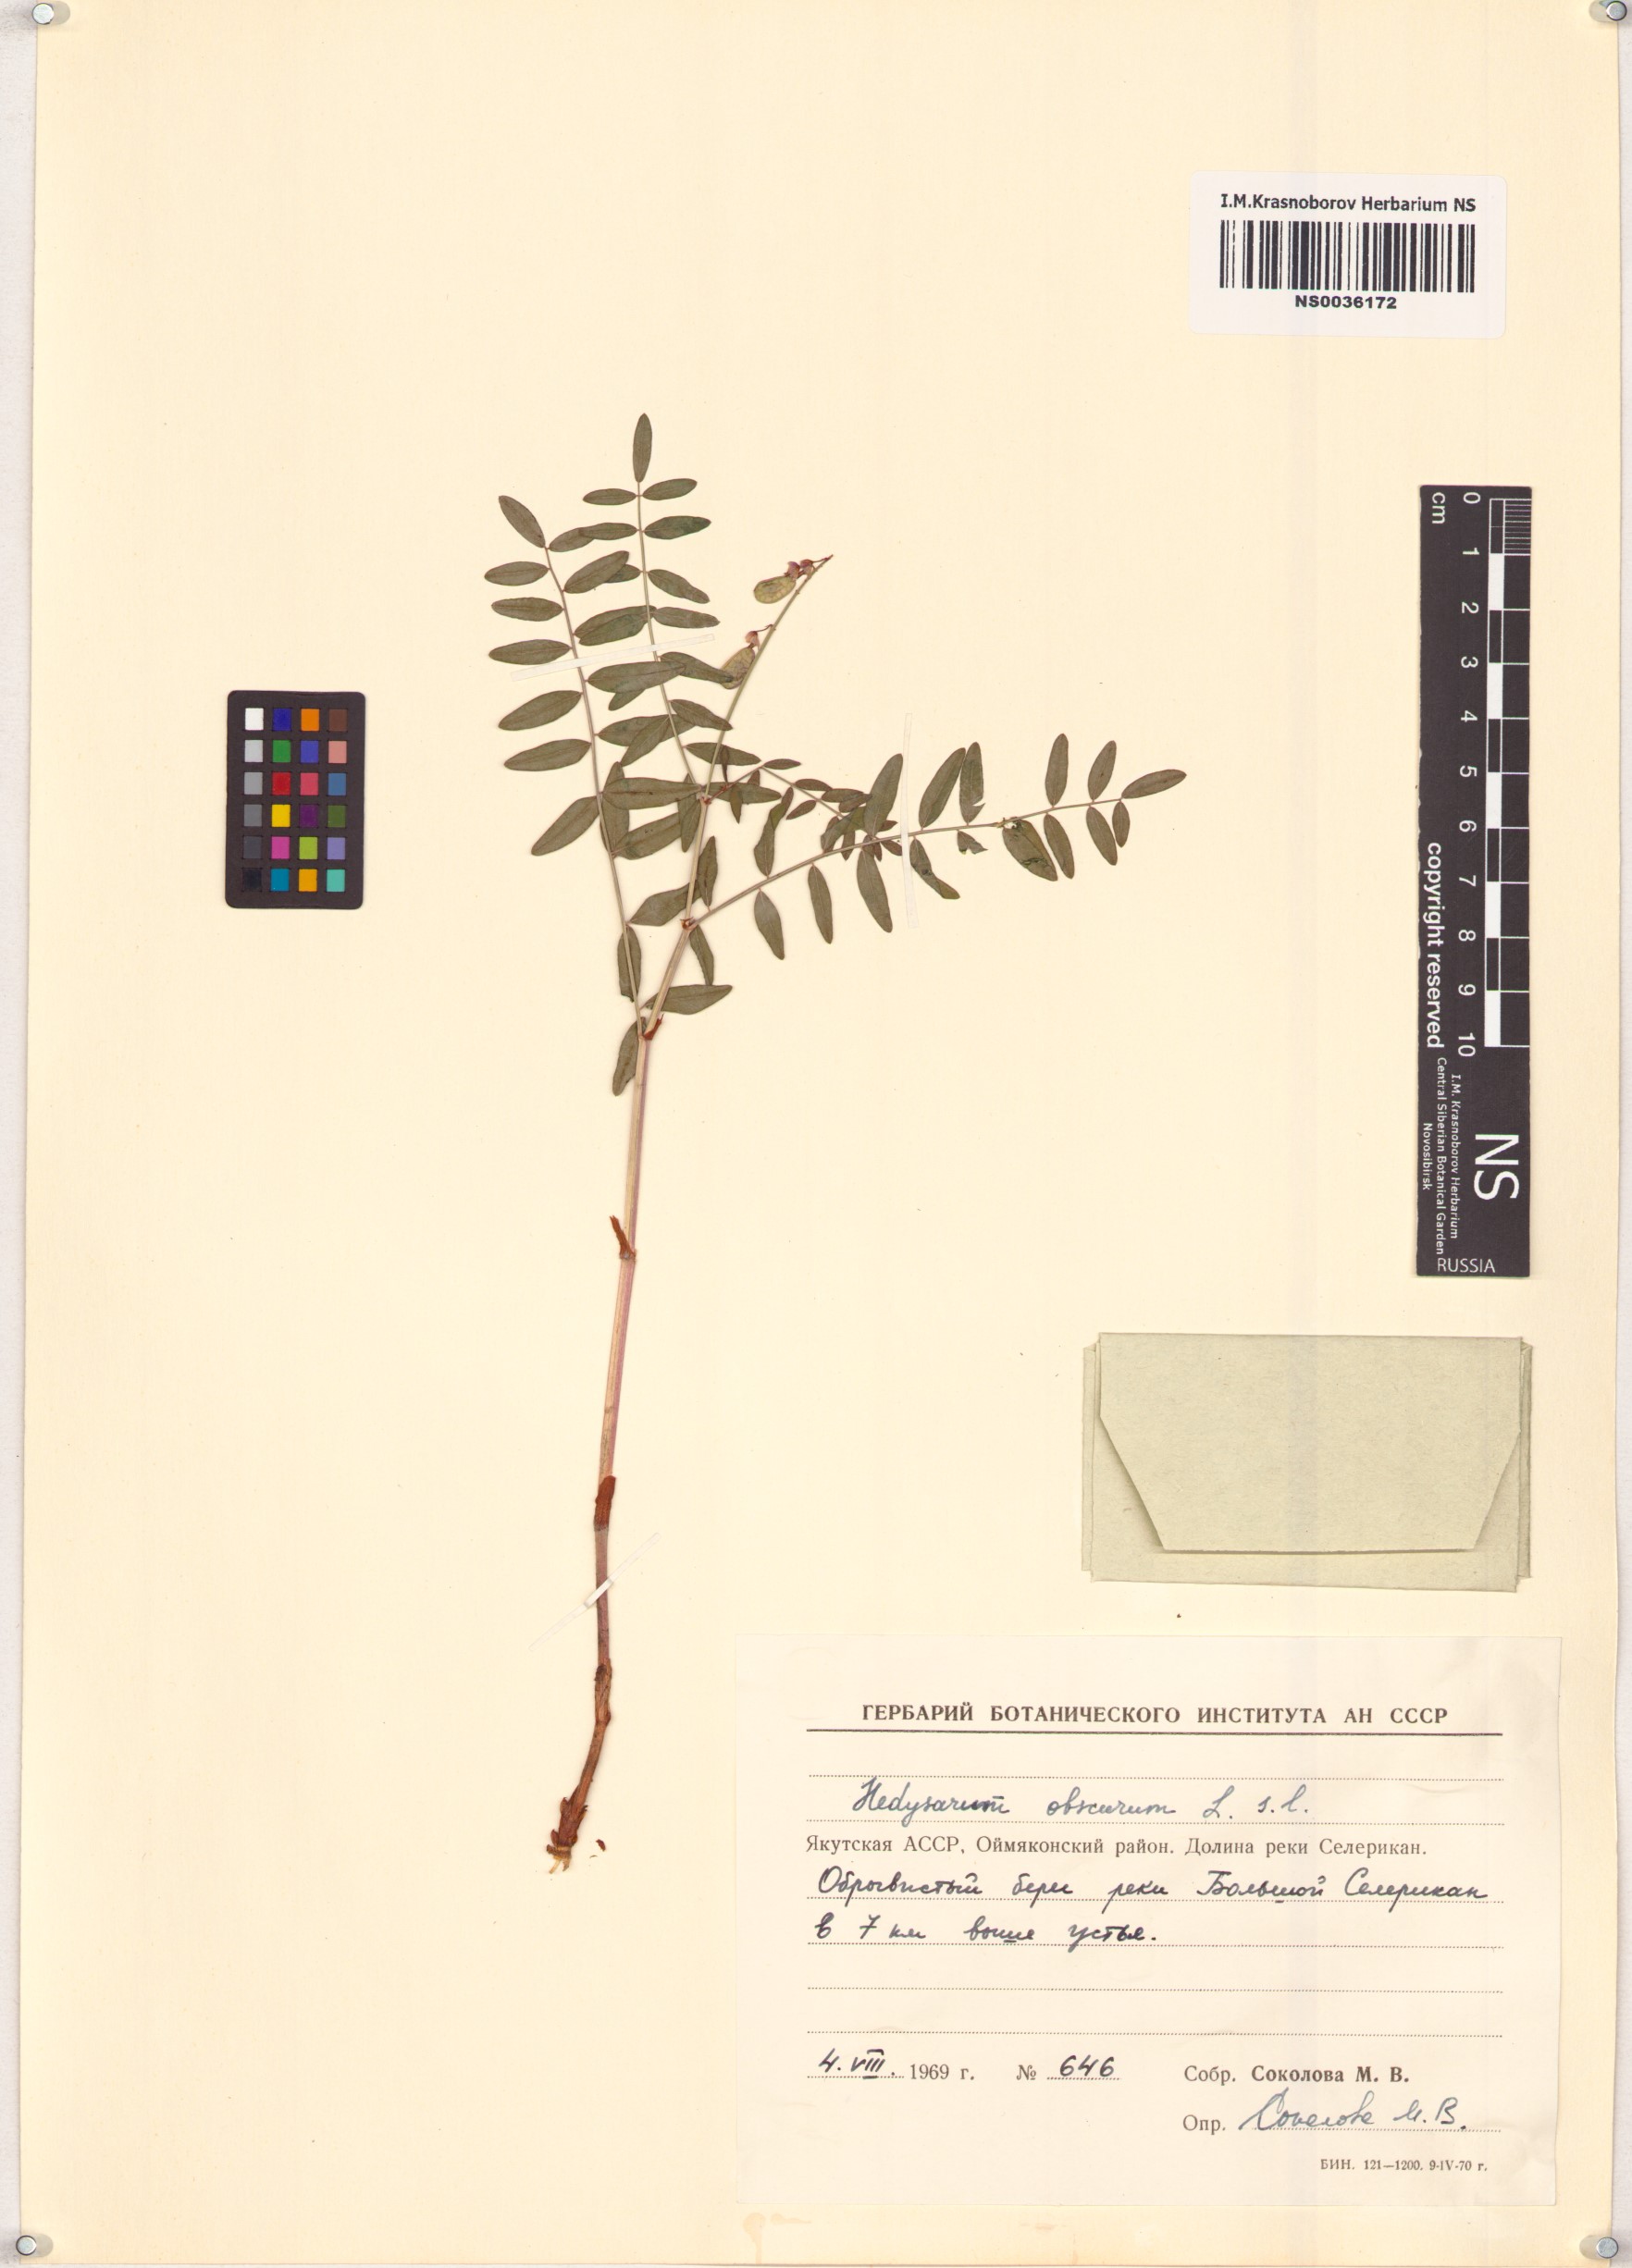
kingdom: Plantae
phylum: Tracheophyta
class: Magnoliopsida
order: Fabales
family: Fabaceae
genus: Hedysarum
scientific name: Hedysarum hedysaroides
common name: Alpine french-honeysuckle
